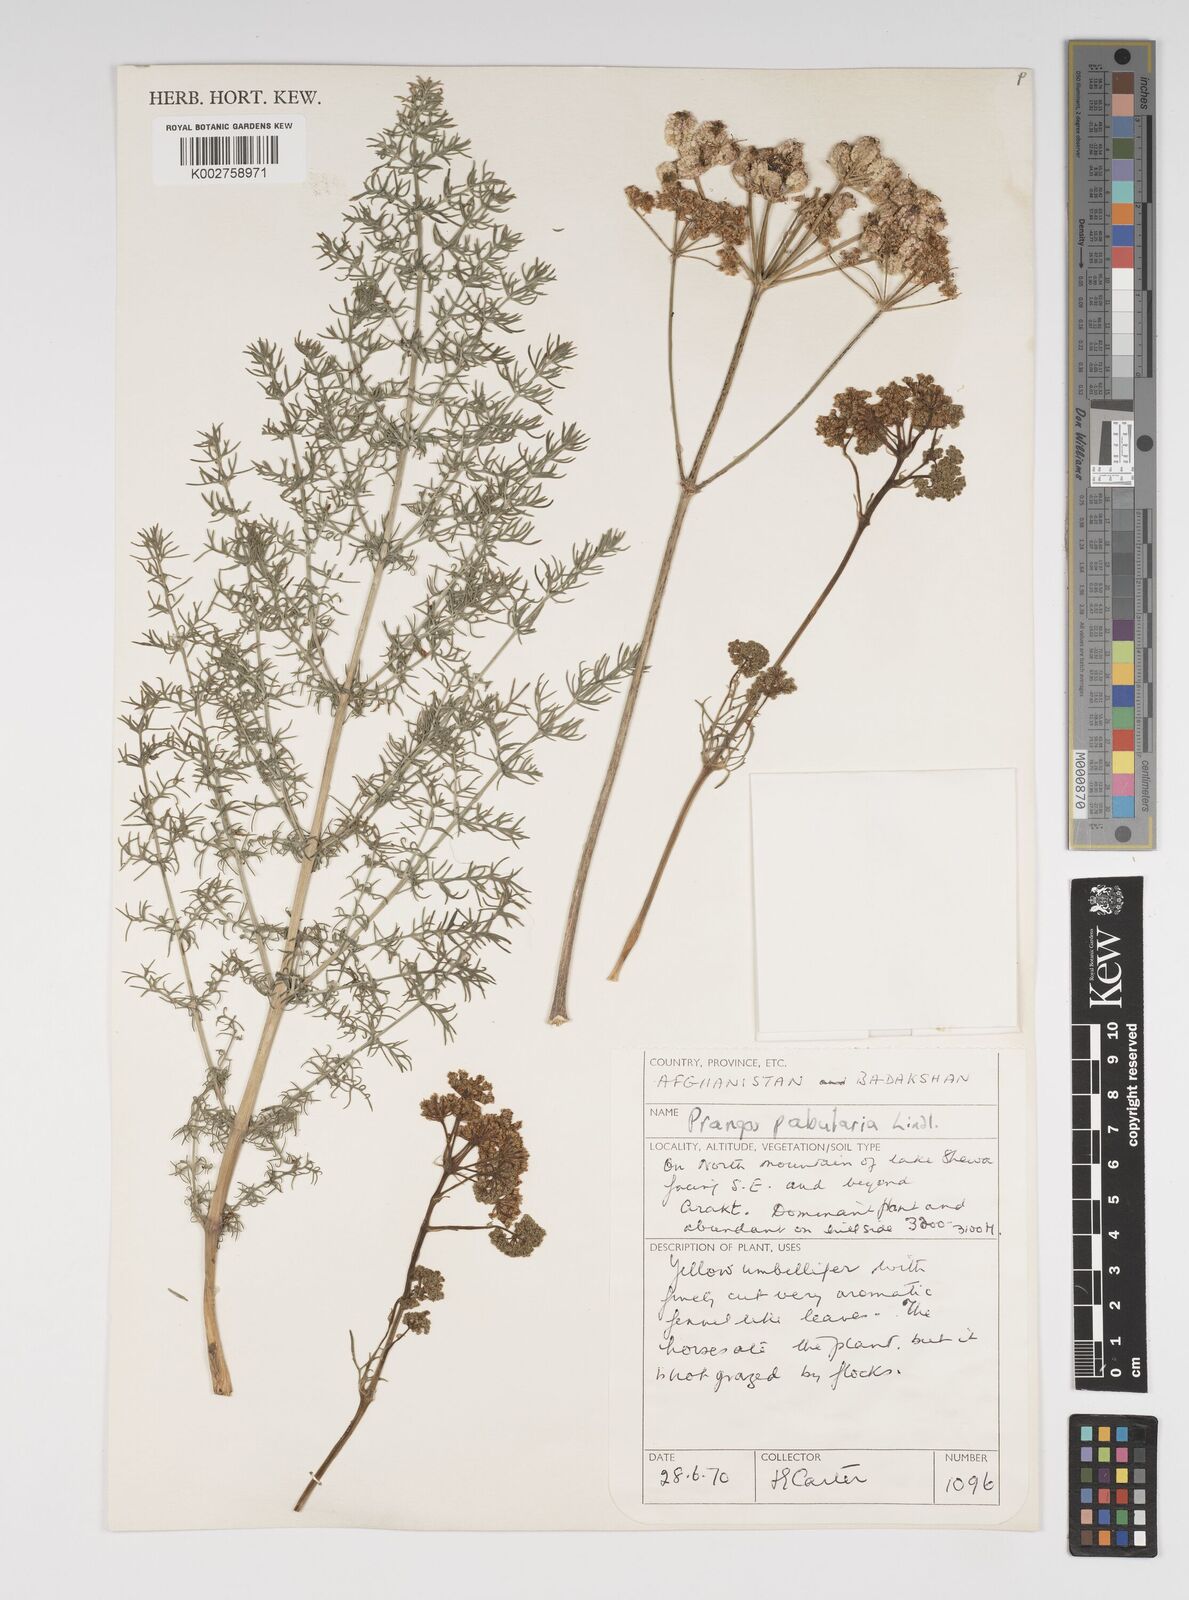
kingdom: Plantae
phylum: Tracheophyta
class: Magnoliopsida
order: Apiales
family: Apiaceae
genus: Prangos
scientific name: Prangos pabularia
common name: Yugan
